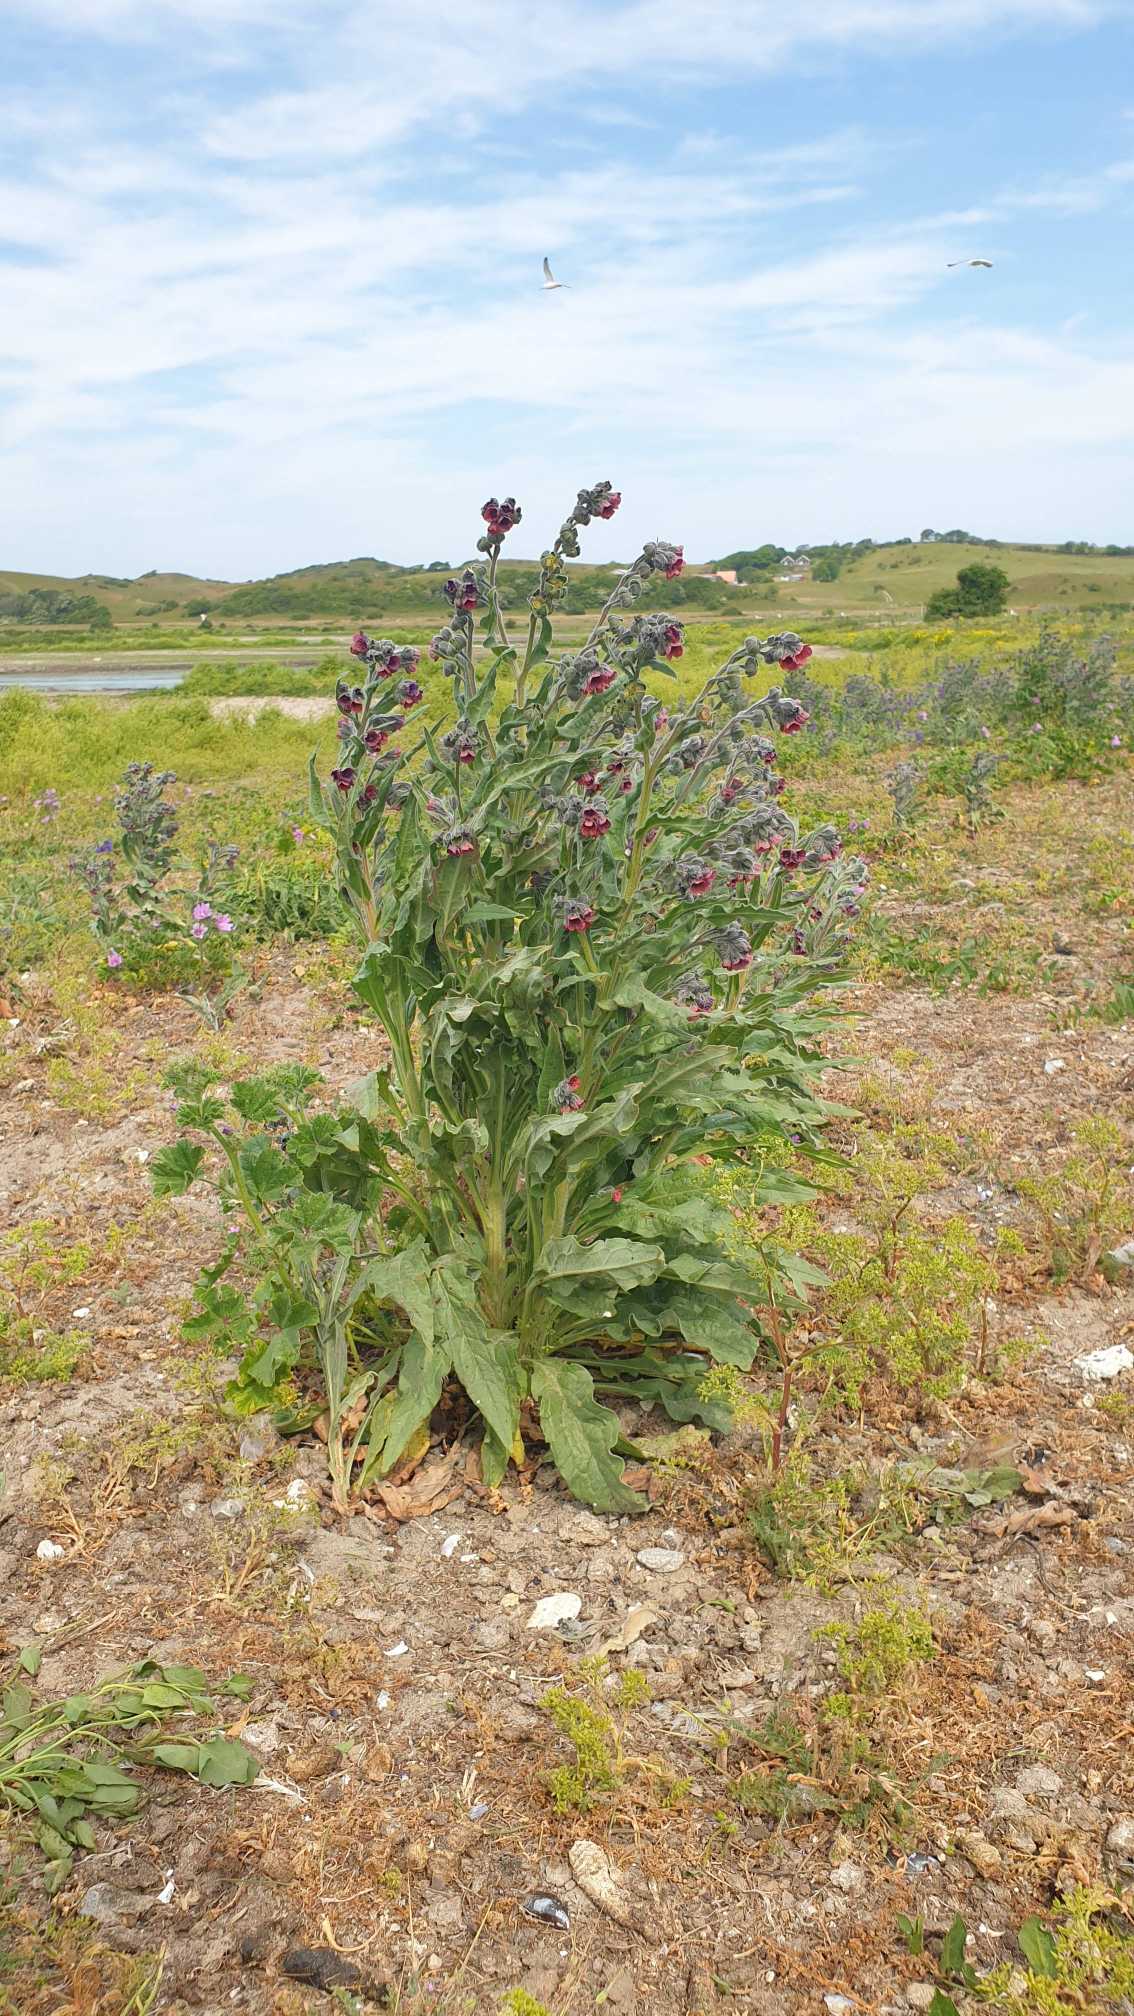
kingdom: Plantae
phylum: Tracheophyta
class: Magnoliopsida
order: Boraginales
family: Boraginaceae
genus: Cynoglossum
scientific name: Cynoglossum officinale
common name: Hundetunge
